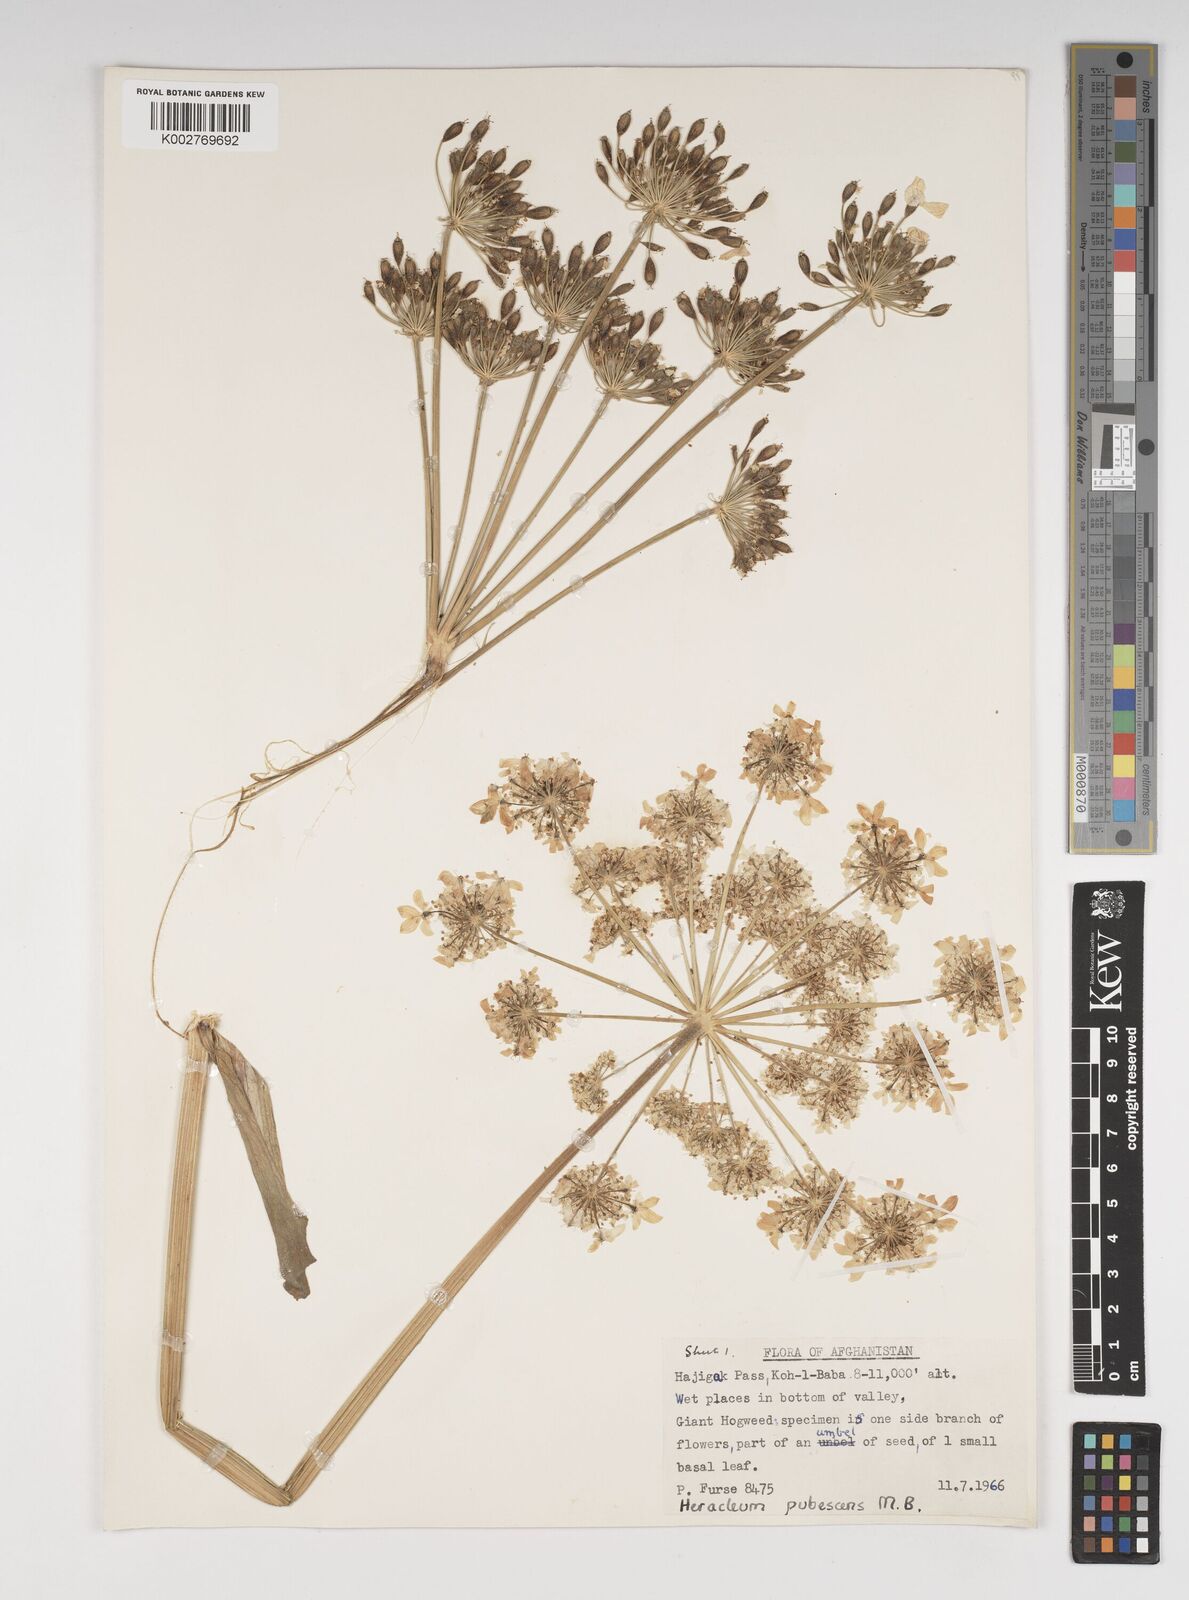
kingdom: Plantae
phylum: Tracheophyta
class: Magnoliopsida
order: Apiales
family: Apiaceae
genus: Heracleum
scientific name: Heracleum persicum
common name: Persian hogweed
